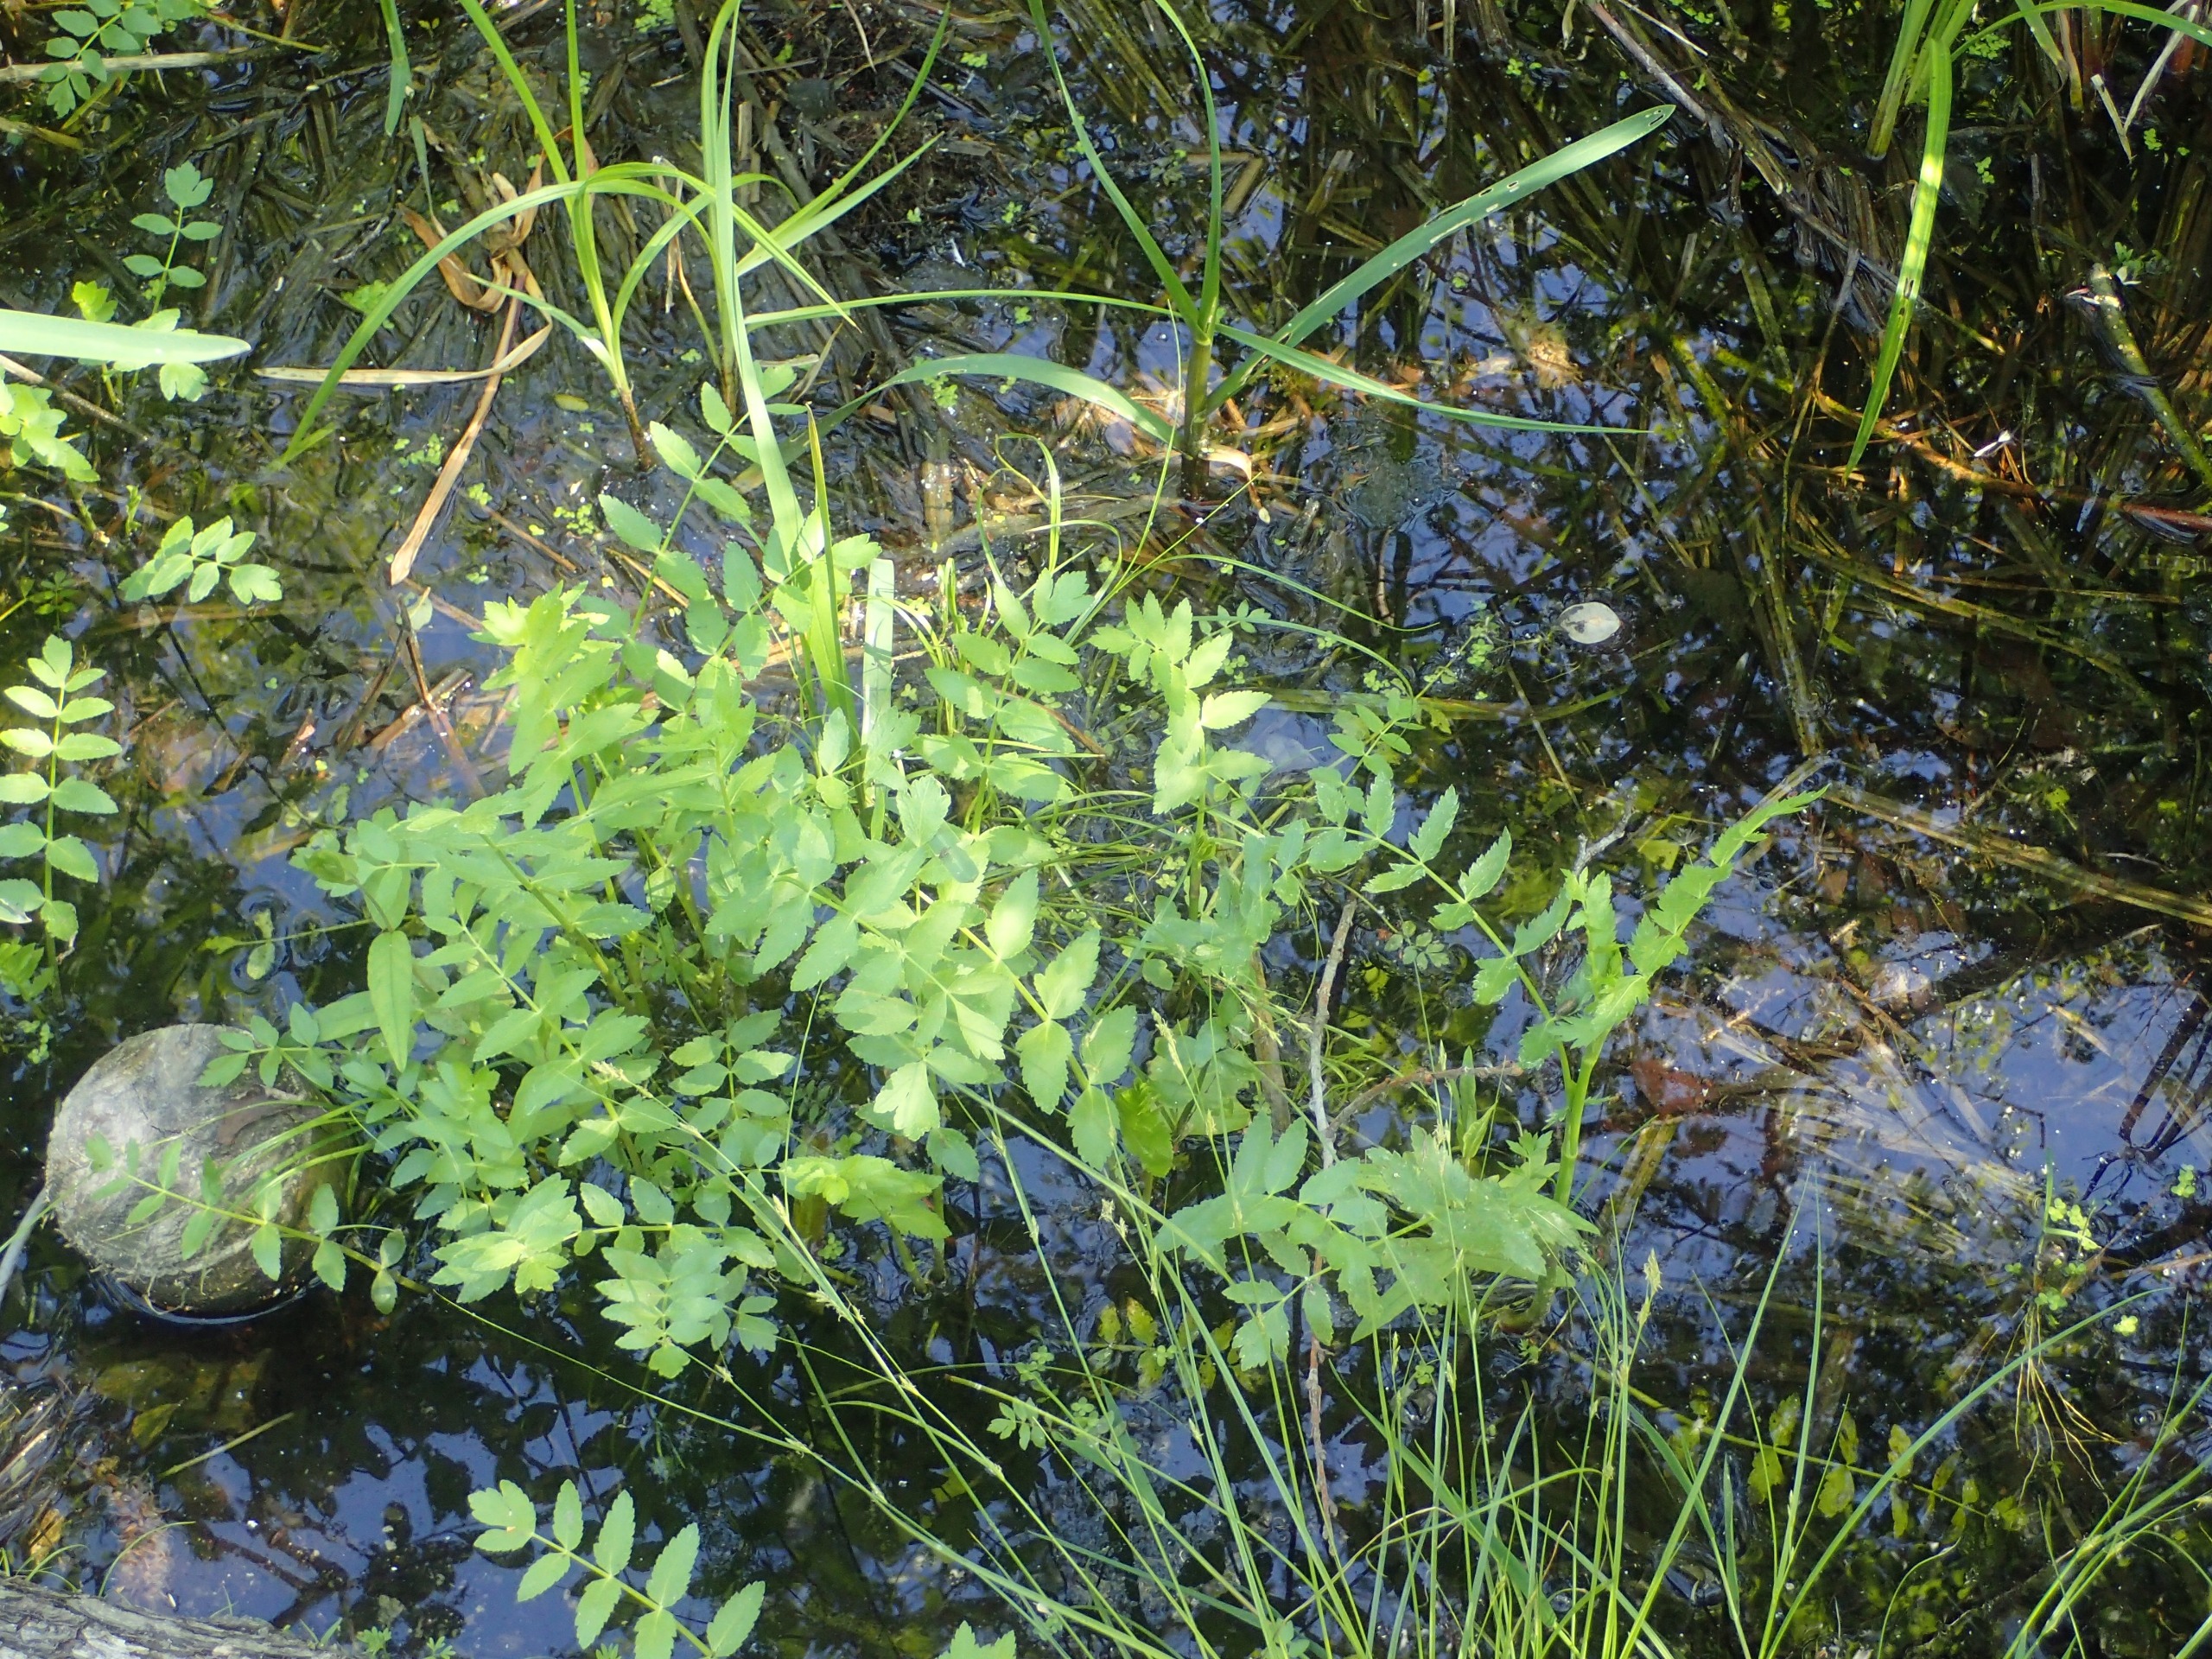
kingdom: Plantae
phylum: Tracheophyta
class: Magnoliopsida
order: Apiales
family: Apiaceae
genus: Berula
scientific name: Berula erecta
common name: Sideskærm
